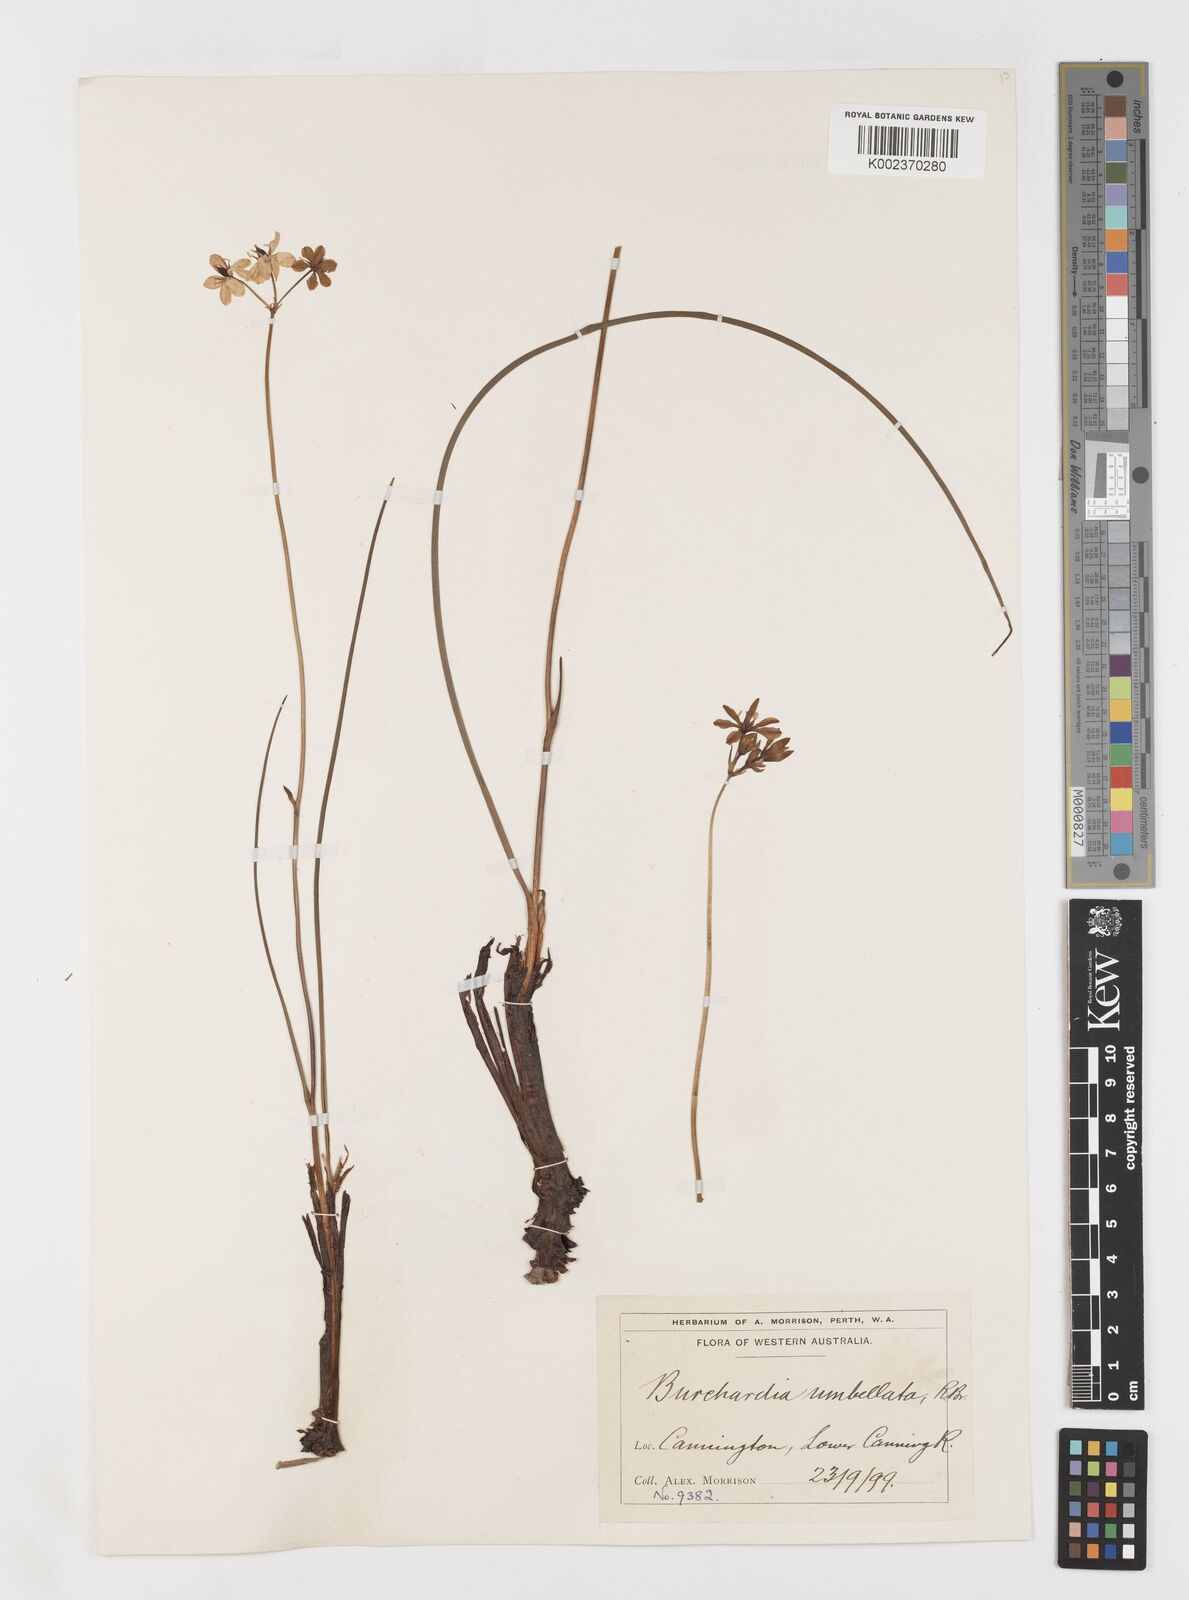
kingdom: Plantae
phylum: Tracheophyta
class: Liliopsida
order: Liliales
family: Colchicaceae
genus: Burchardia
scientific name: Burchardia umbellata
